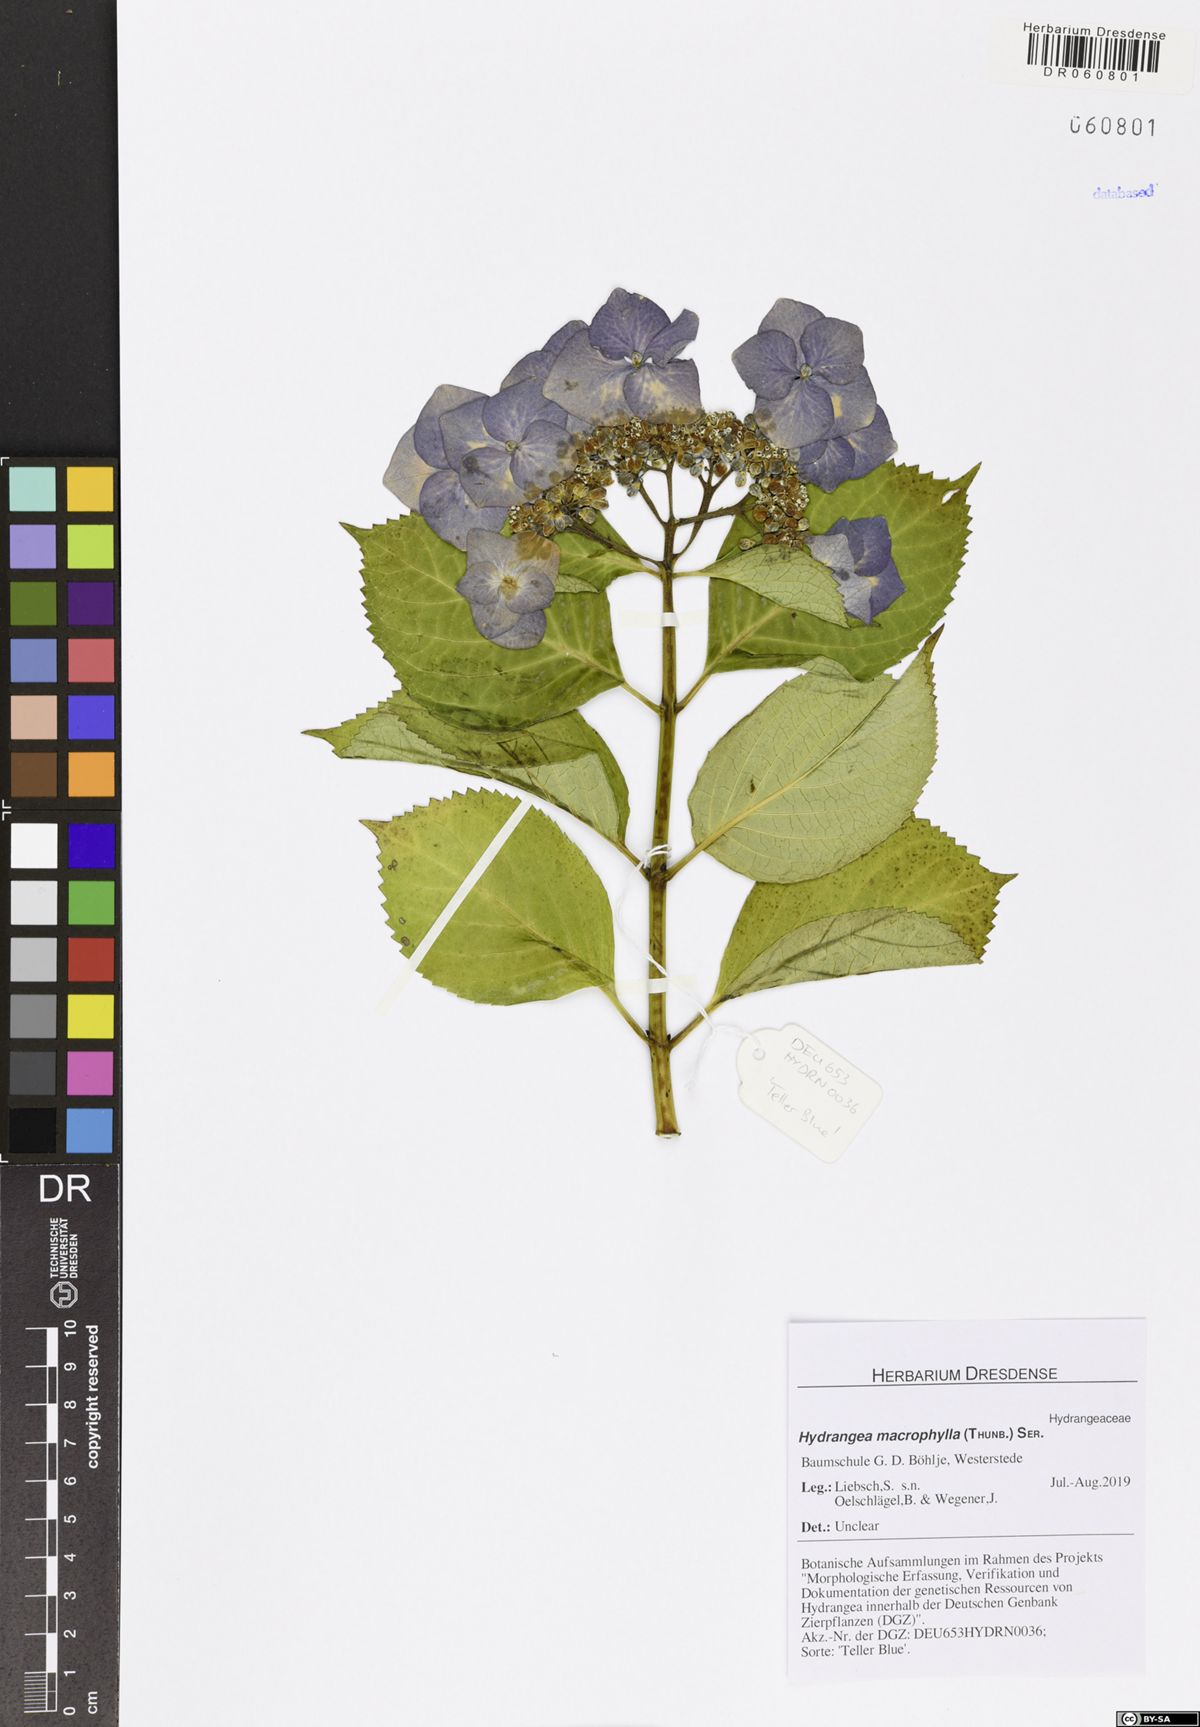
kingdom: Plantae
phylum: Tracheophyta
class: Magnoliopsida
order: Cornales
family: Hydrangeaceae
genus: Hydrangea
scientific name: Hydrangea macrophylla
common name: Hydrangea
